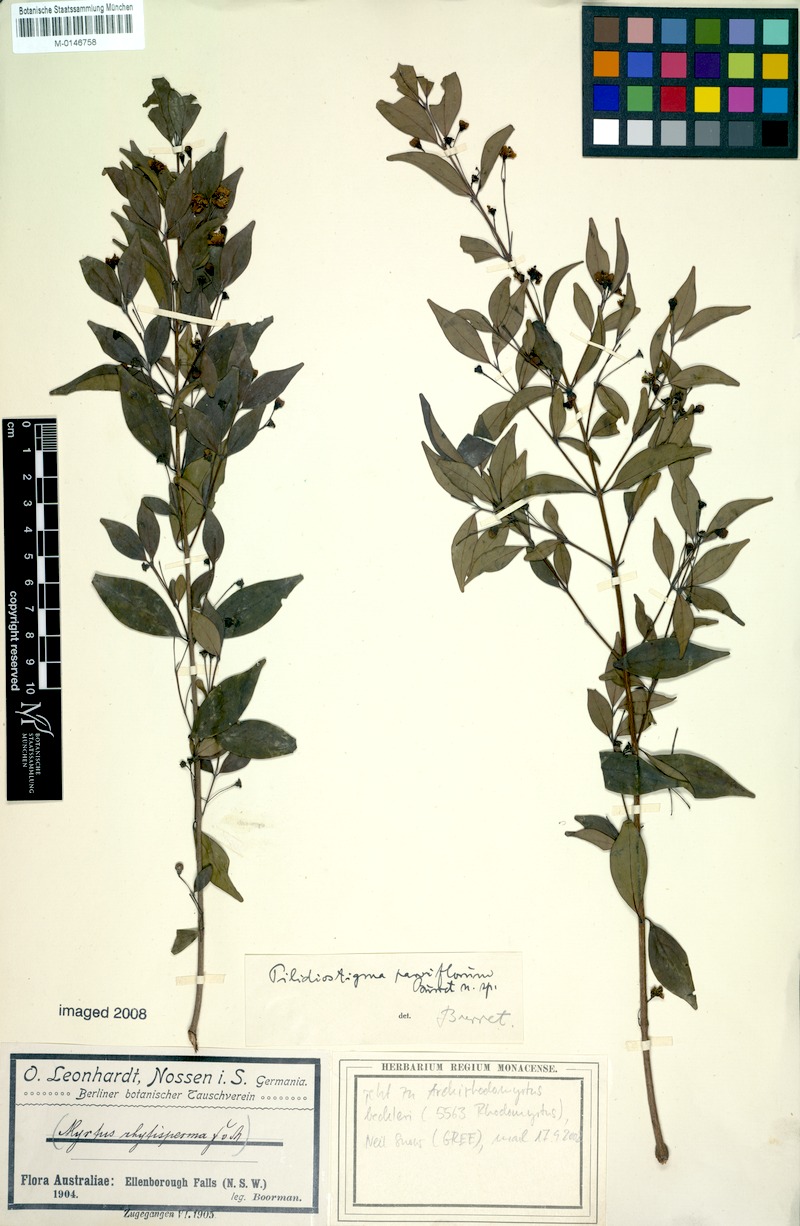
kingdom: Plantae
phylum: Tracheophyta
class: Magnoliopsida
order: Myrtales
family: Myrtaceae
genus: Archirhodomyrtus
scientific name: Archirhodomyrtus beckleri
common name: Beckler's myrtle
